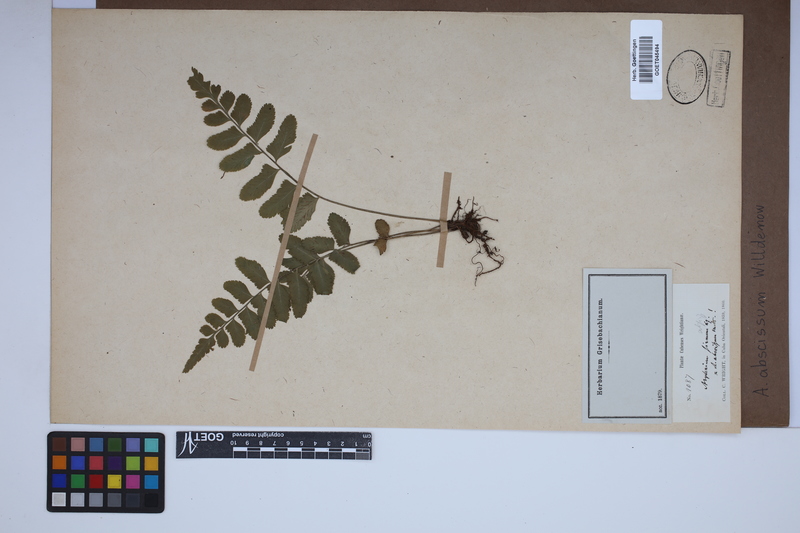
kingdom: Plantae
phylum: Tracheophyta
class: Polypodiopsida
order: Polypodiales
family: Aspleniaceae
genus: Asplenium
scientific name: Asplenium abscissum
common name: Cutleaf spleenwort
